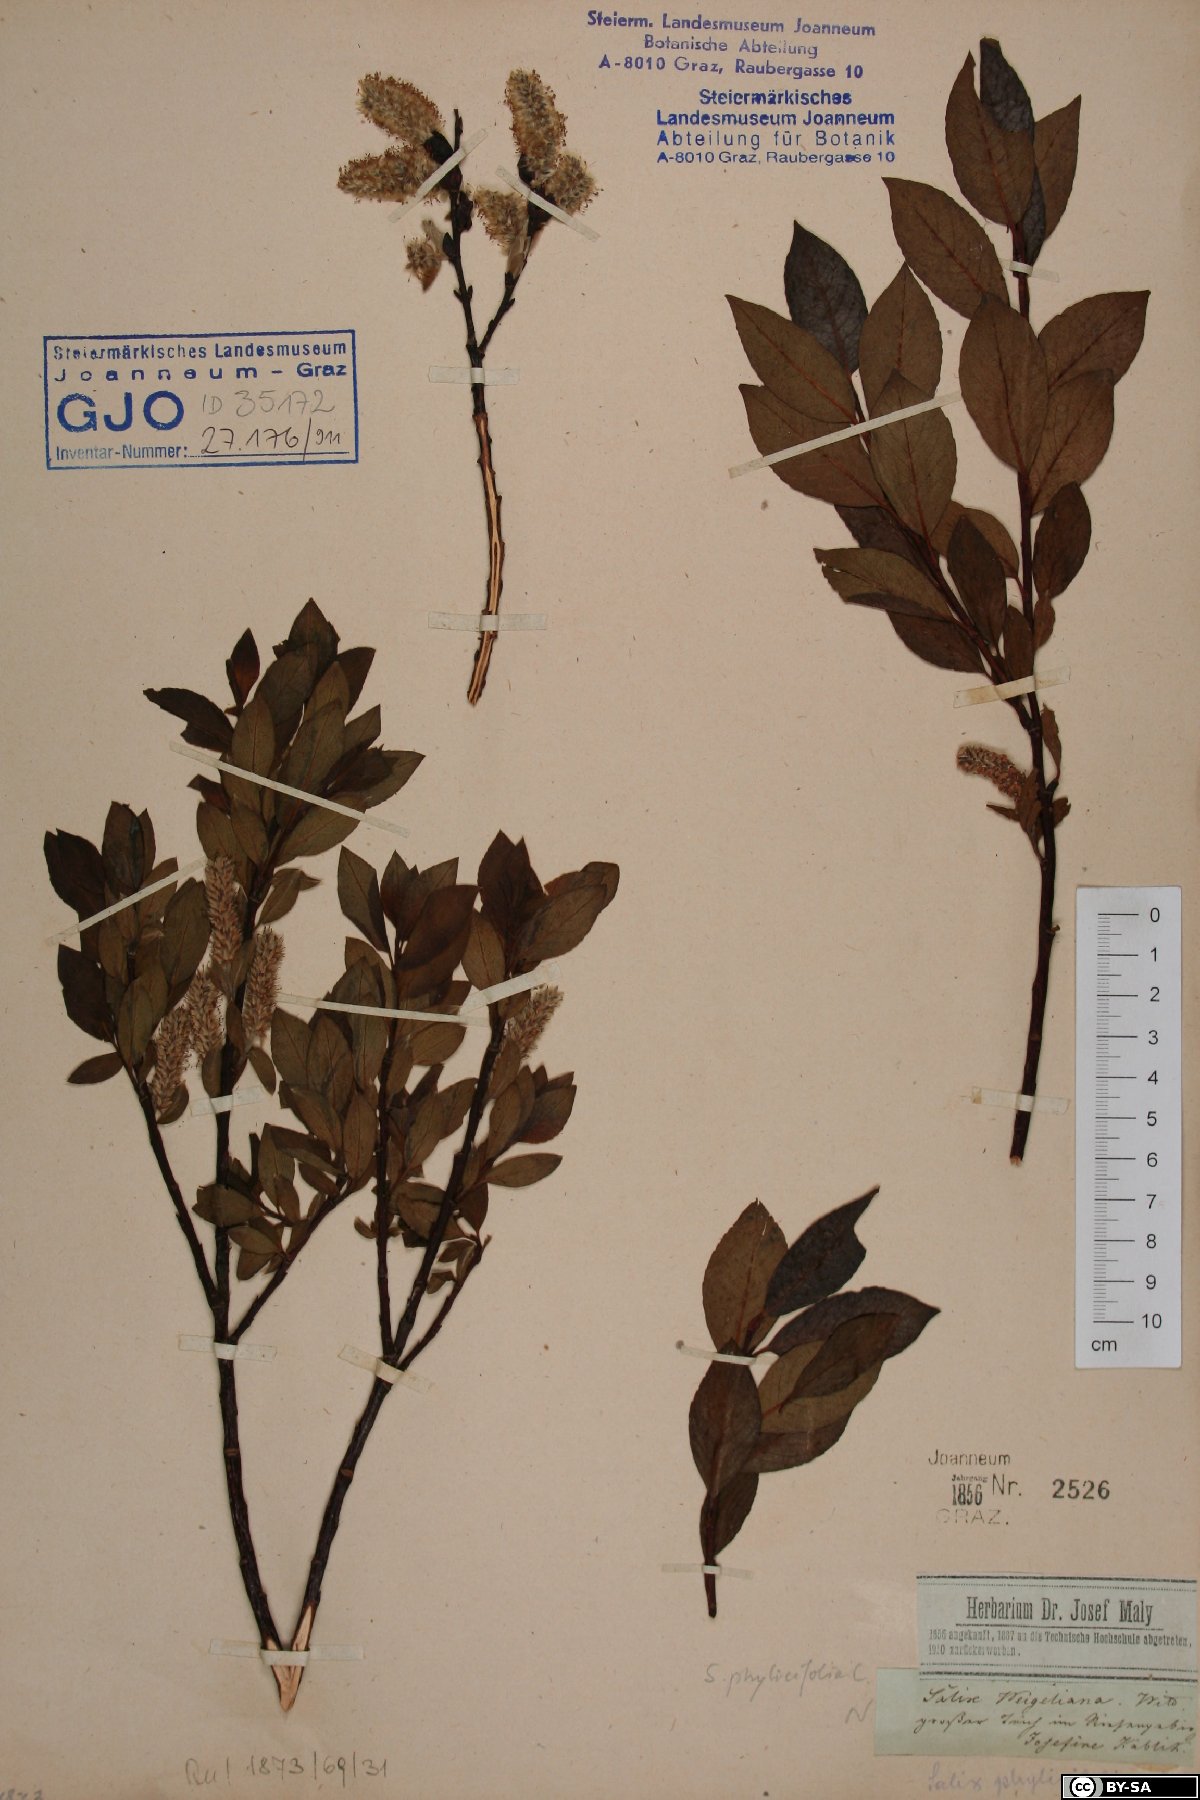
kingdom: Plantae
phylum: Tracheophyta
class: Magnoliopsida
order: Malpighiales
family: Salicaceae
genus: Salix
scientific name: Salix phylicifolia
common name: Tea-leaved willow
